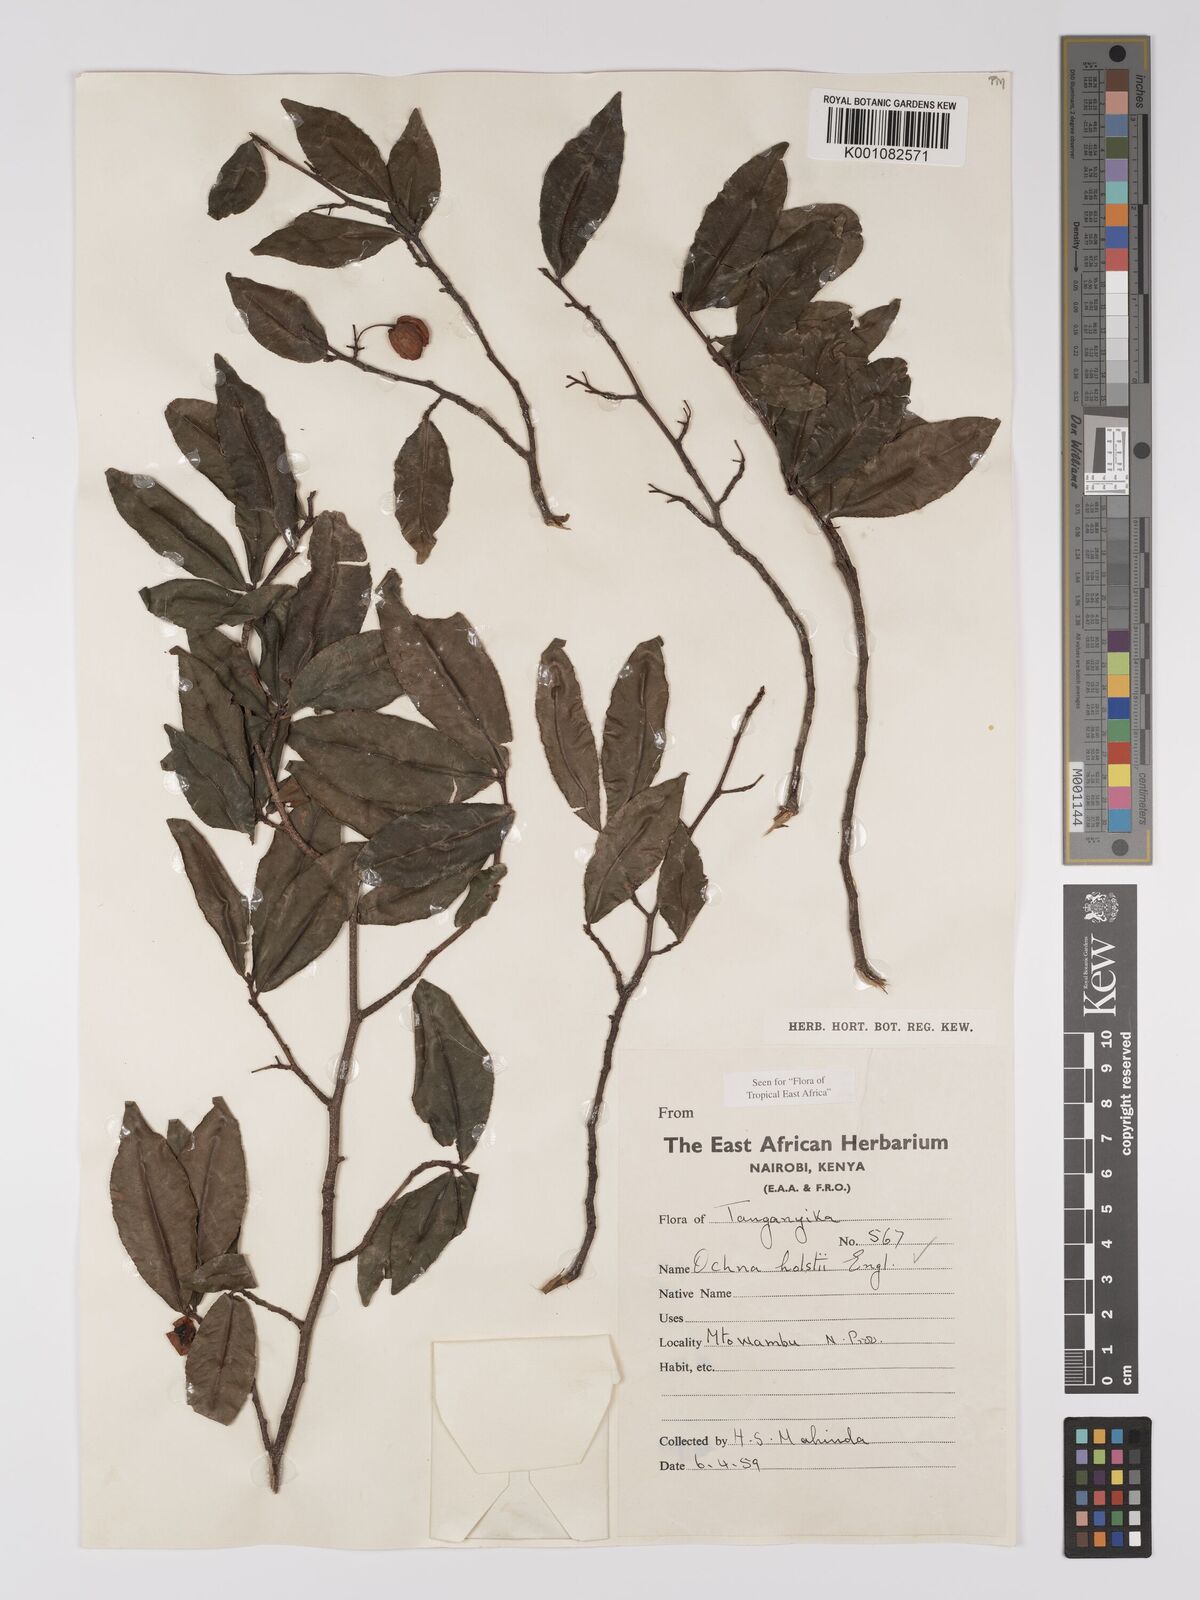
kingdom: Plantae
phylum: Tracheophyta
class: Magnoliopsida
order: Malpighiales
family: Ochnaceae
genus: Ochna
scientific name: Ochna holstii
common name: Red ironwood
